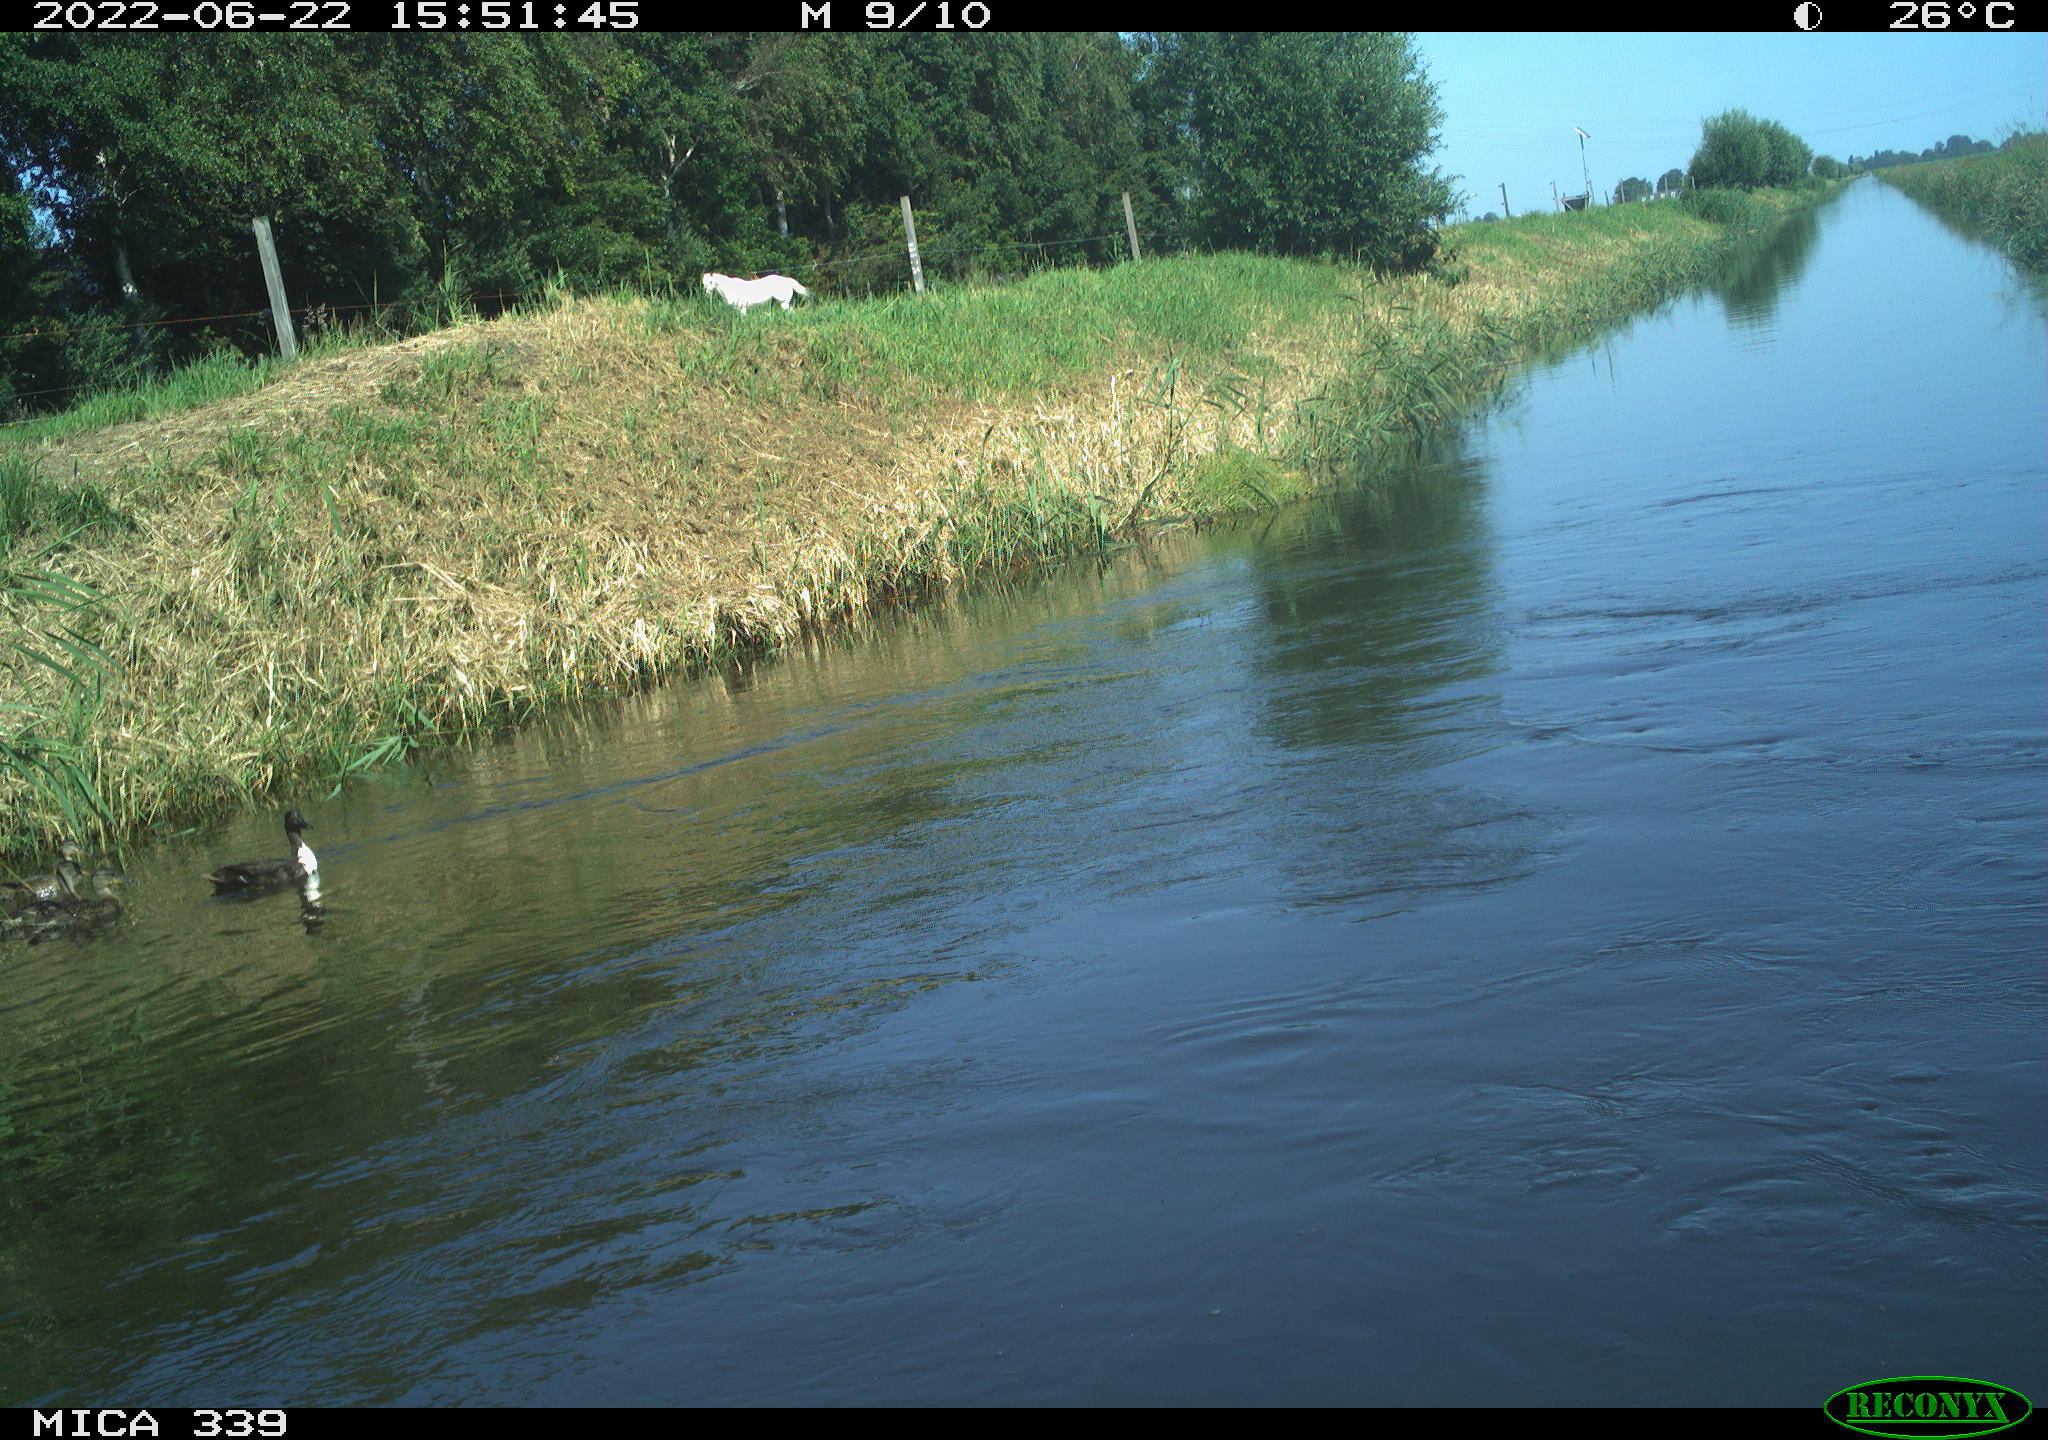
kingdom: Animalia
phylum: Chordata
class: Aves
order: Pelecaniformes
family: Ardeidae
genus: Ardea
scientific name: Ardea cinerea
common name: Grey heron
